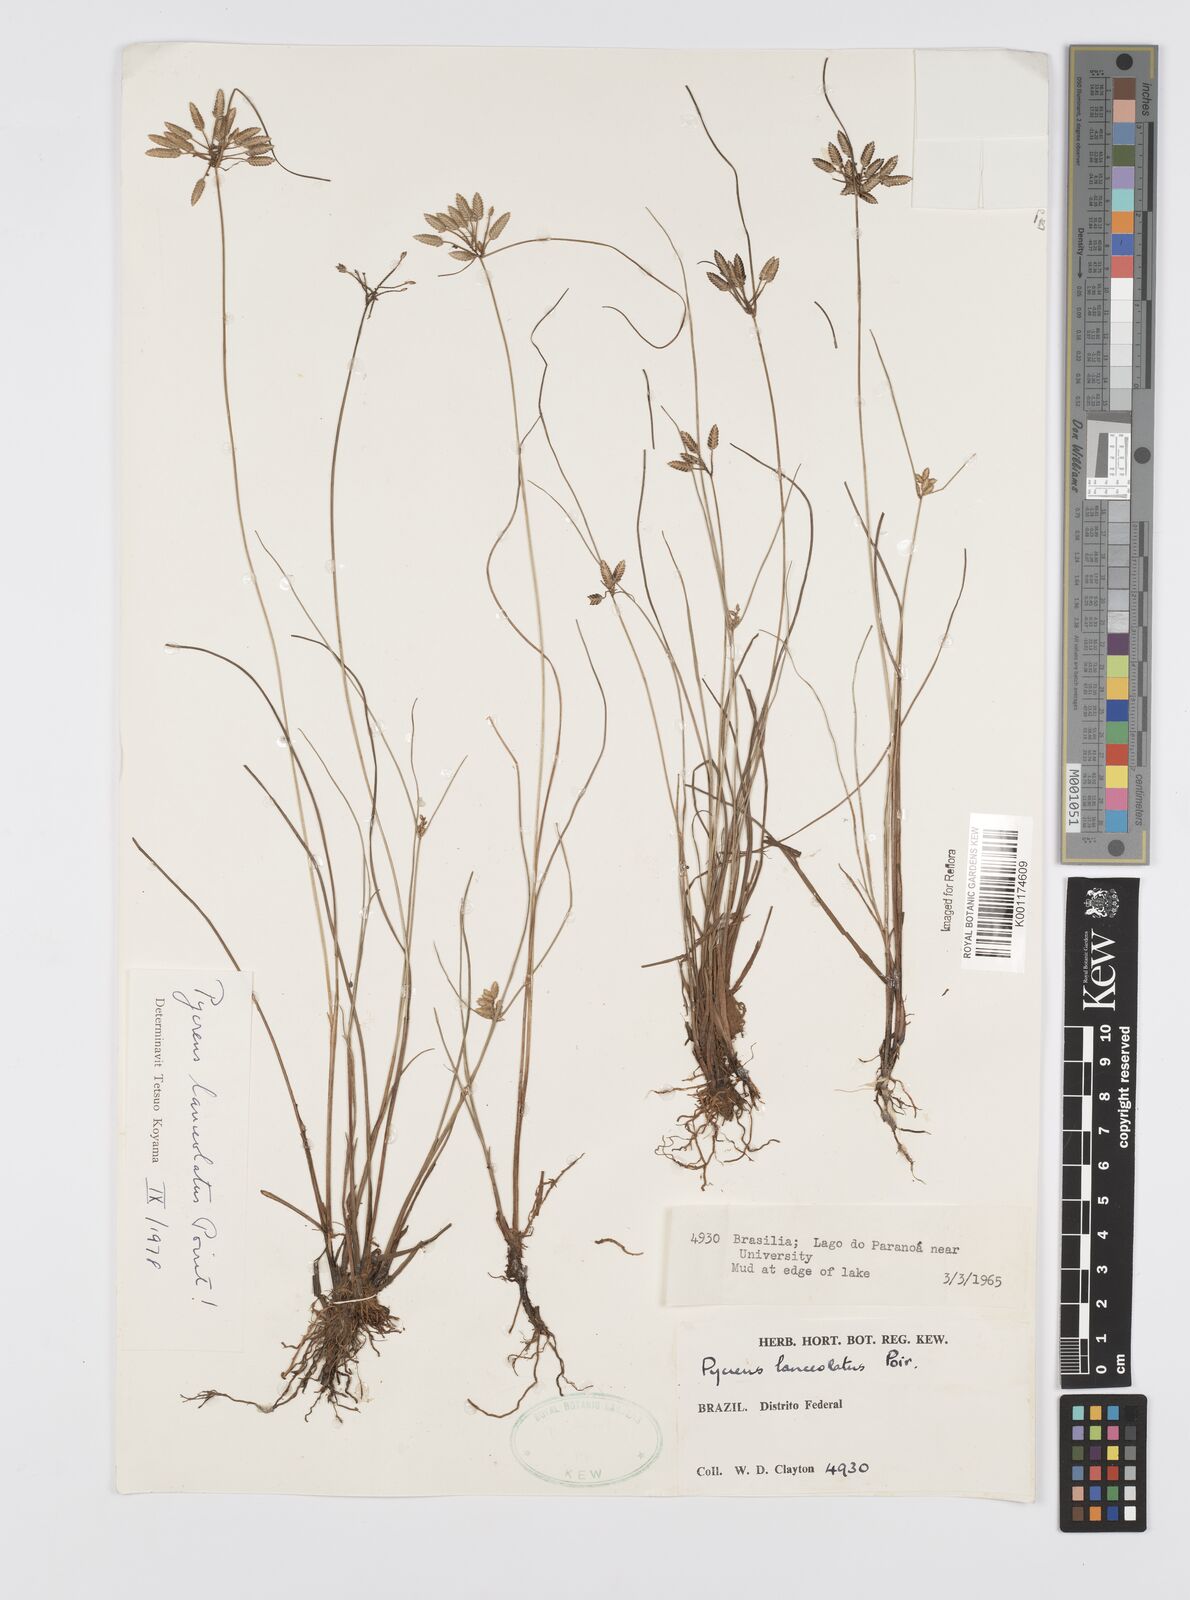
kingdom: Plantae
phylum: Tracheophyta
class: Liliopsida
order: Poales
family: Cyperaceae
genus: Cyperus
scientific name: Cyperus
